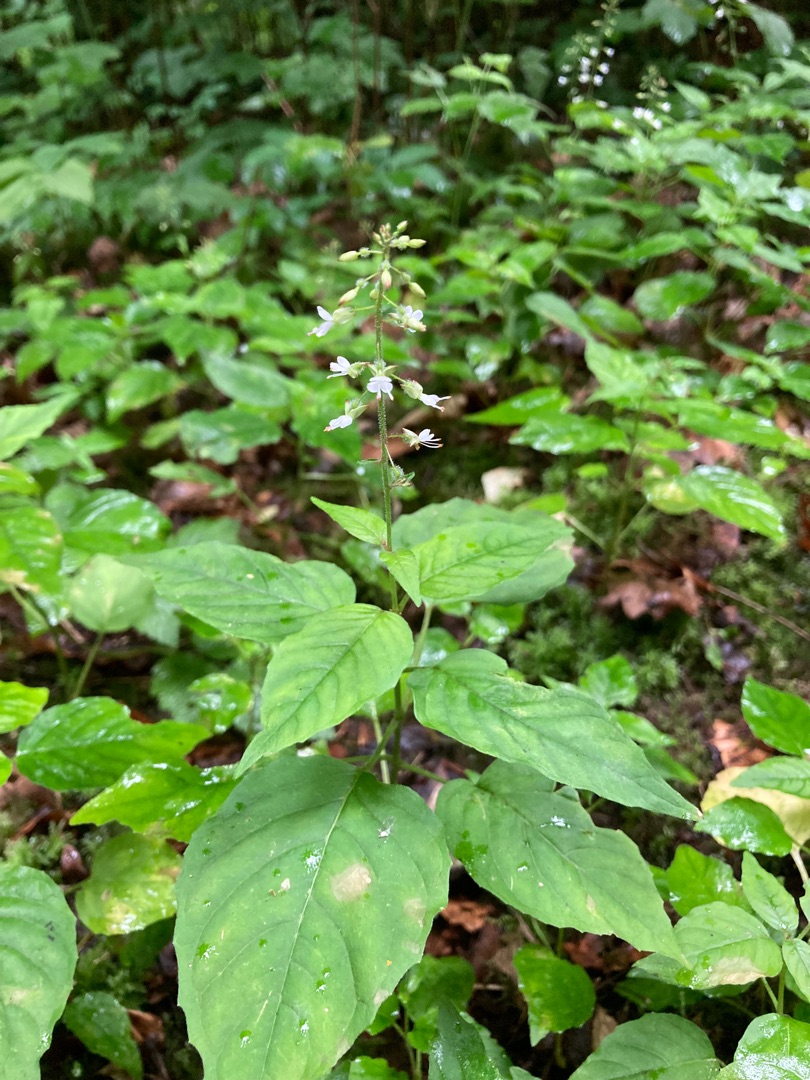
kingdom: Plantae
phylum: Tracheophyta
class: Magnoliopsida
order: Myrtales
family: Onagraceae
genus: Circaea
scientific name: Circaea lutetiana
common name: Dunet steffensurt
